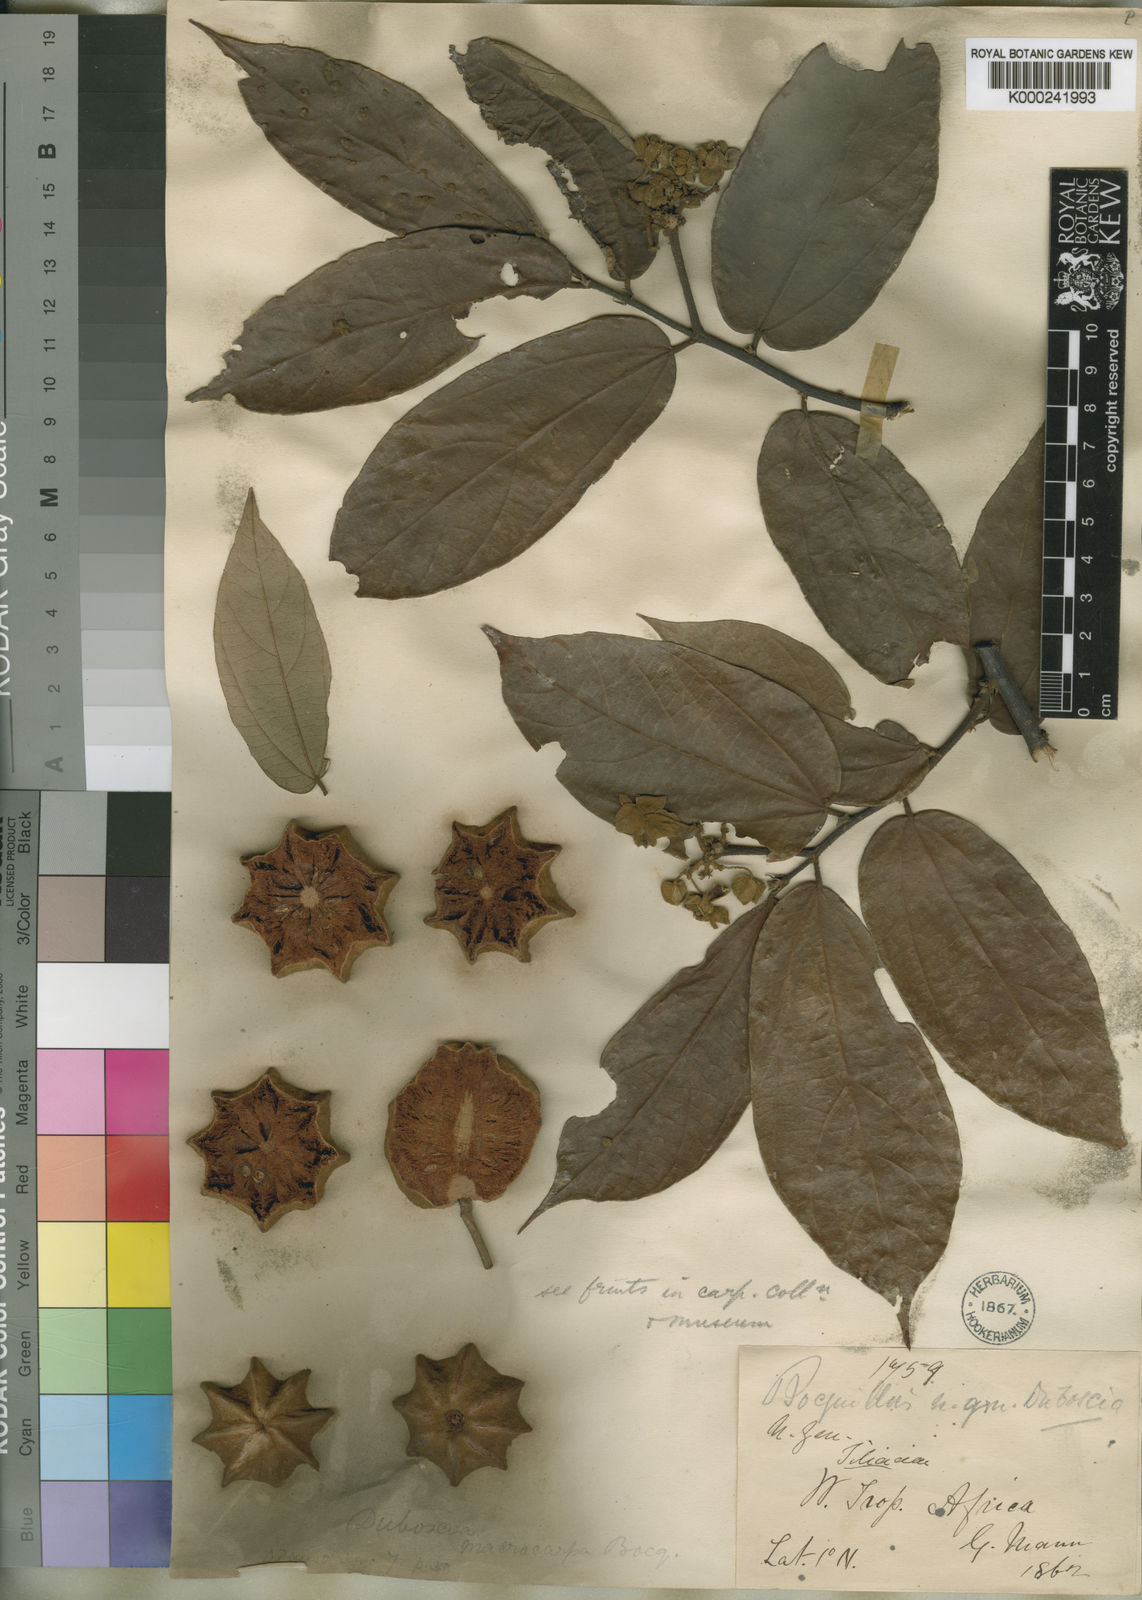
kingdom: Plantae
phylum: Tracheophyta
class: Magnoliopsida
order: Malvales
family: Malvaceae
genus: Duboscia
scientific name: Duboscia macrocarpa
